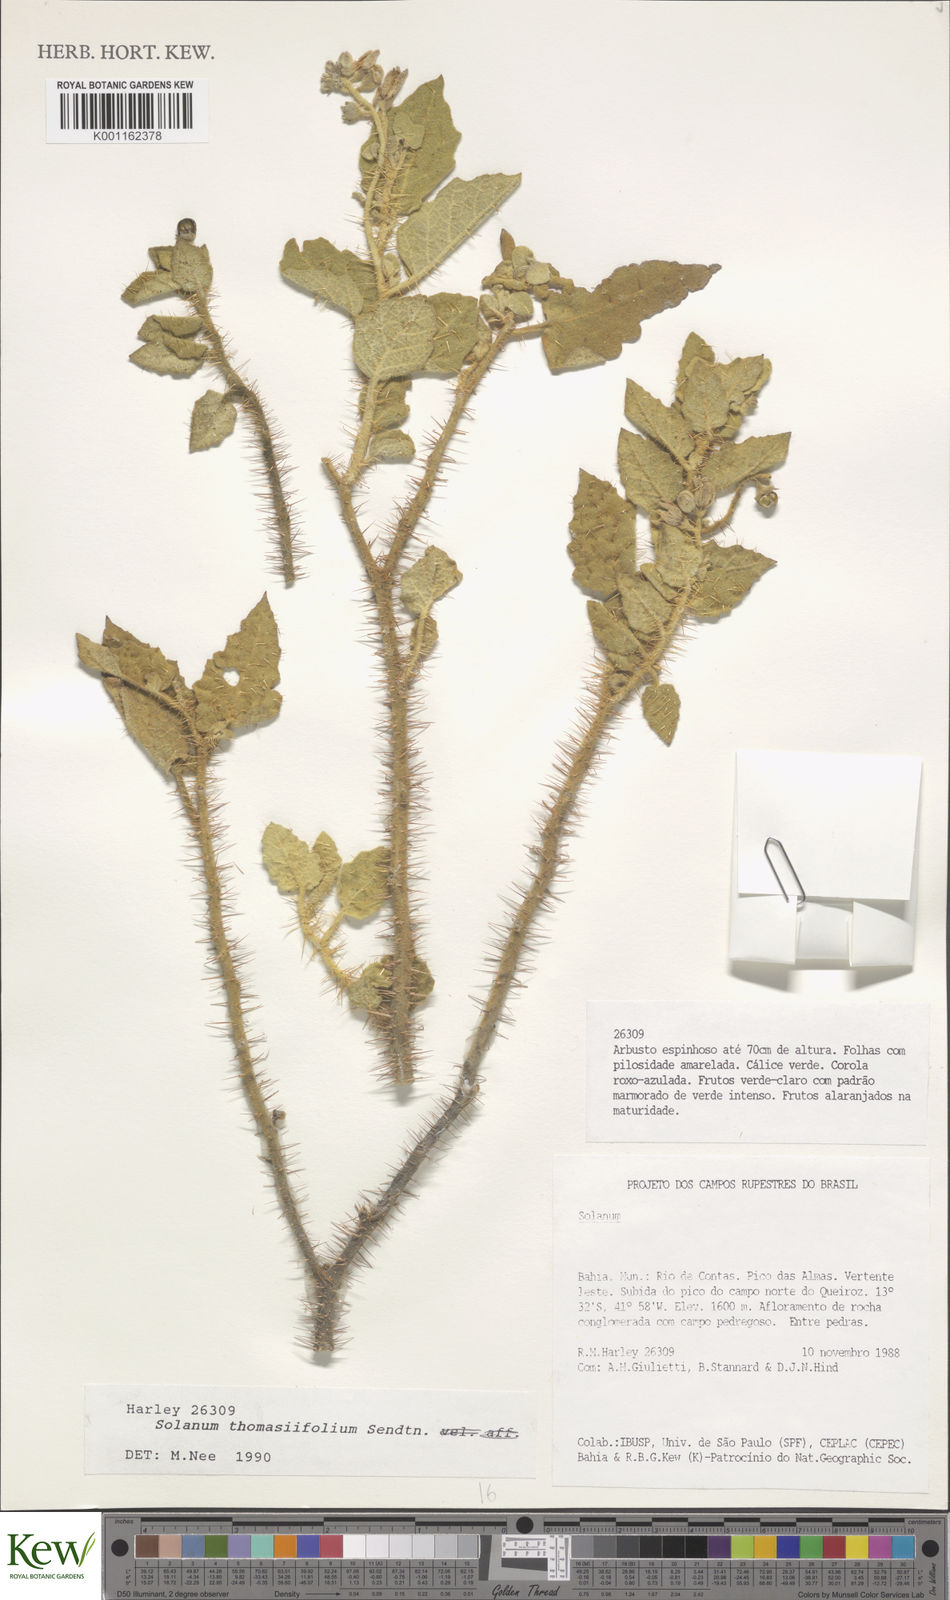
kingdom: Plantae
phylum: Tracheophyta
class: Magnoliopsida
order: Solanales
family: Solanaceae
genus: Solanum
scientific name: Solanum thomasiifolium
